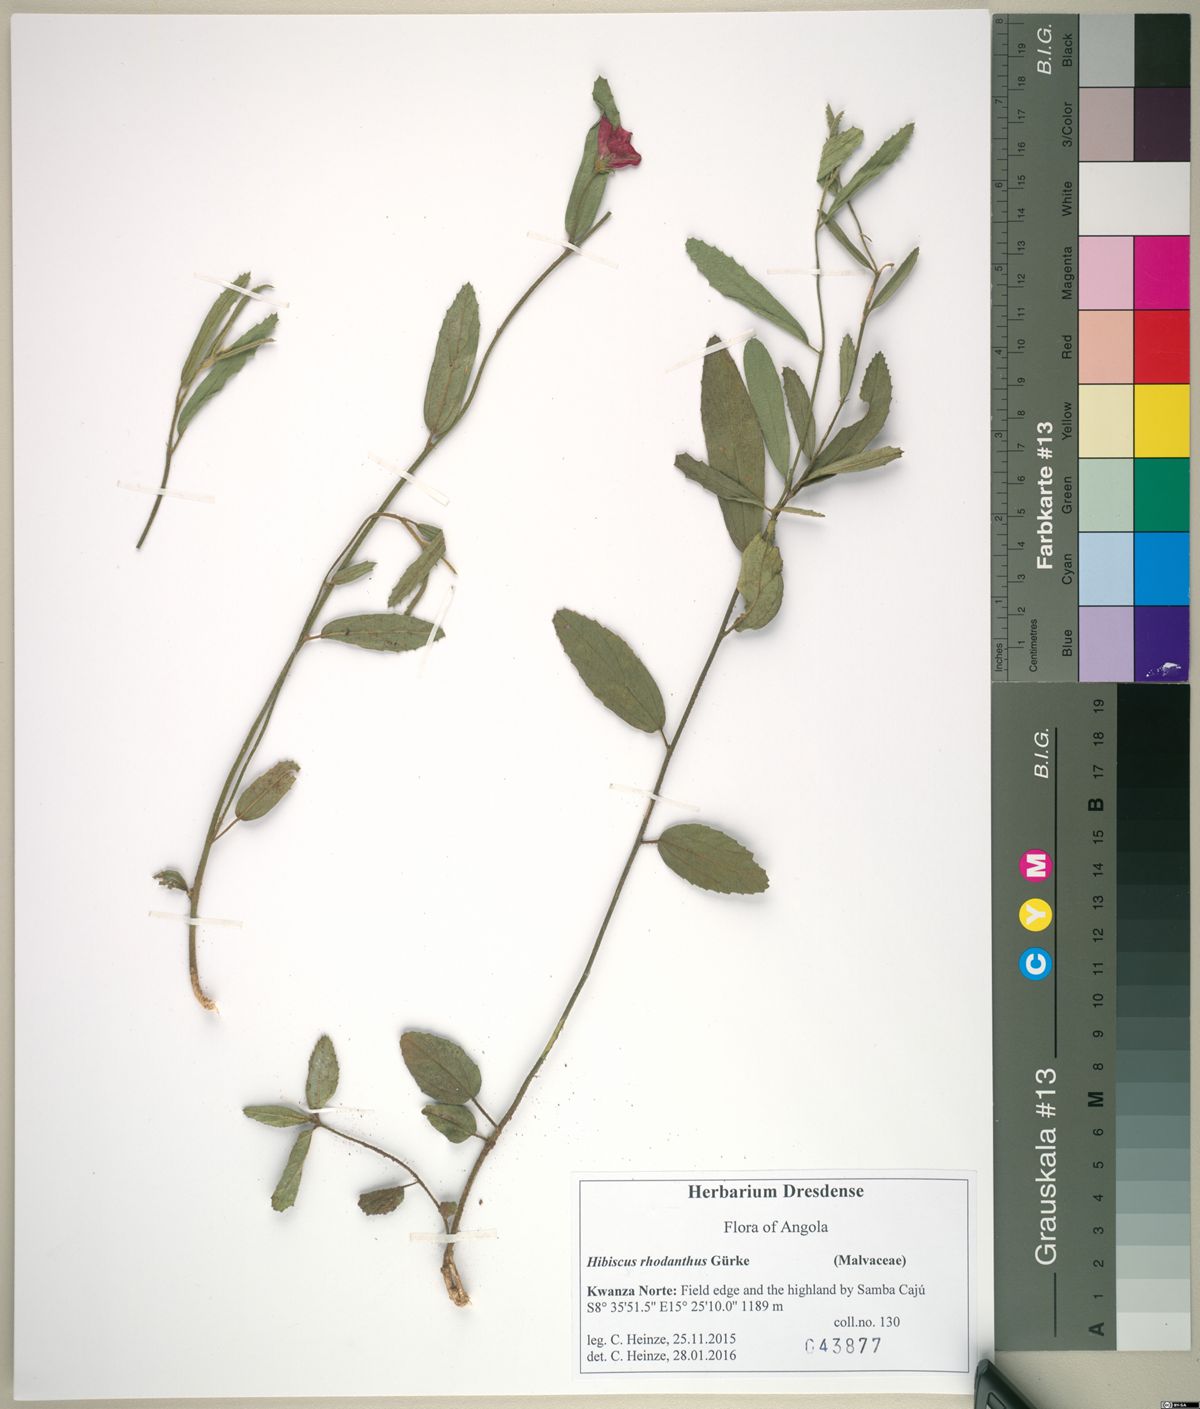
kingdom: Plantae
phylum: Tracheophyta
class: Magnoliopsida
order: Malvales
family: Malvaceae
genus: Hibiscus
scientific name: Hibiscus rhodanthus
